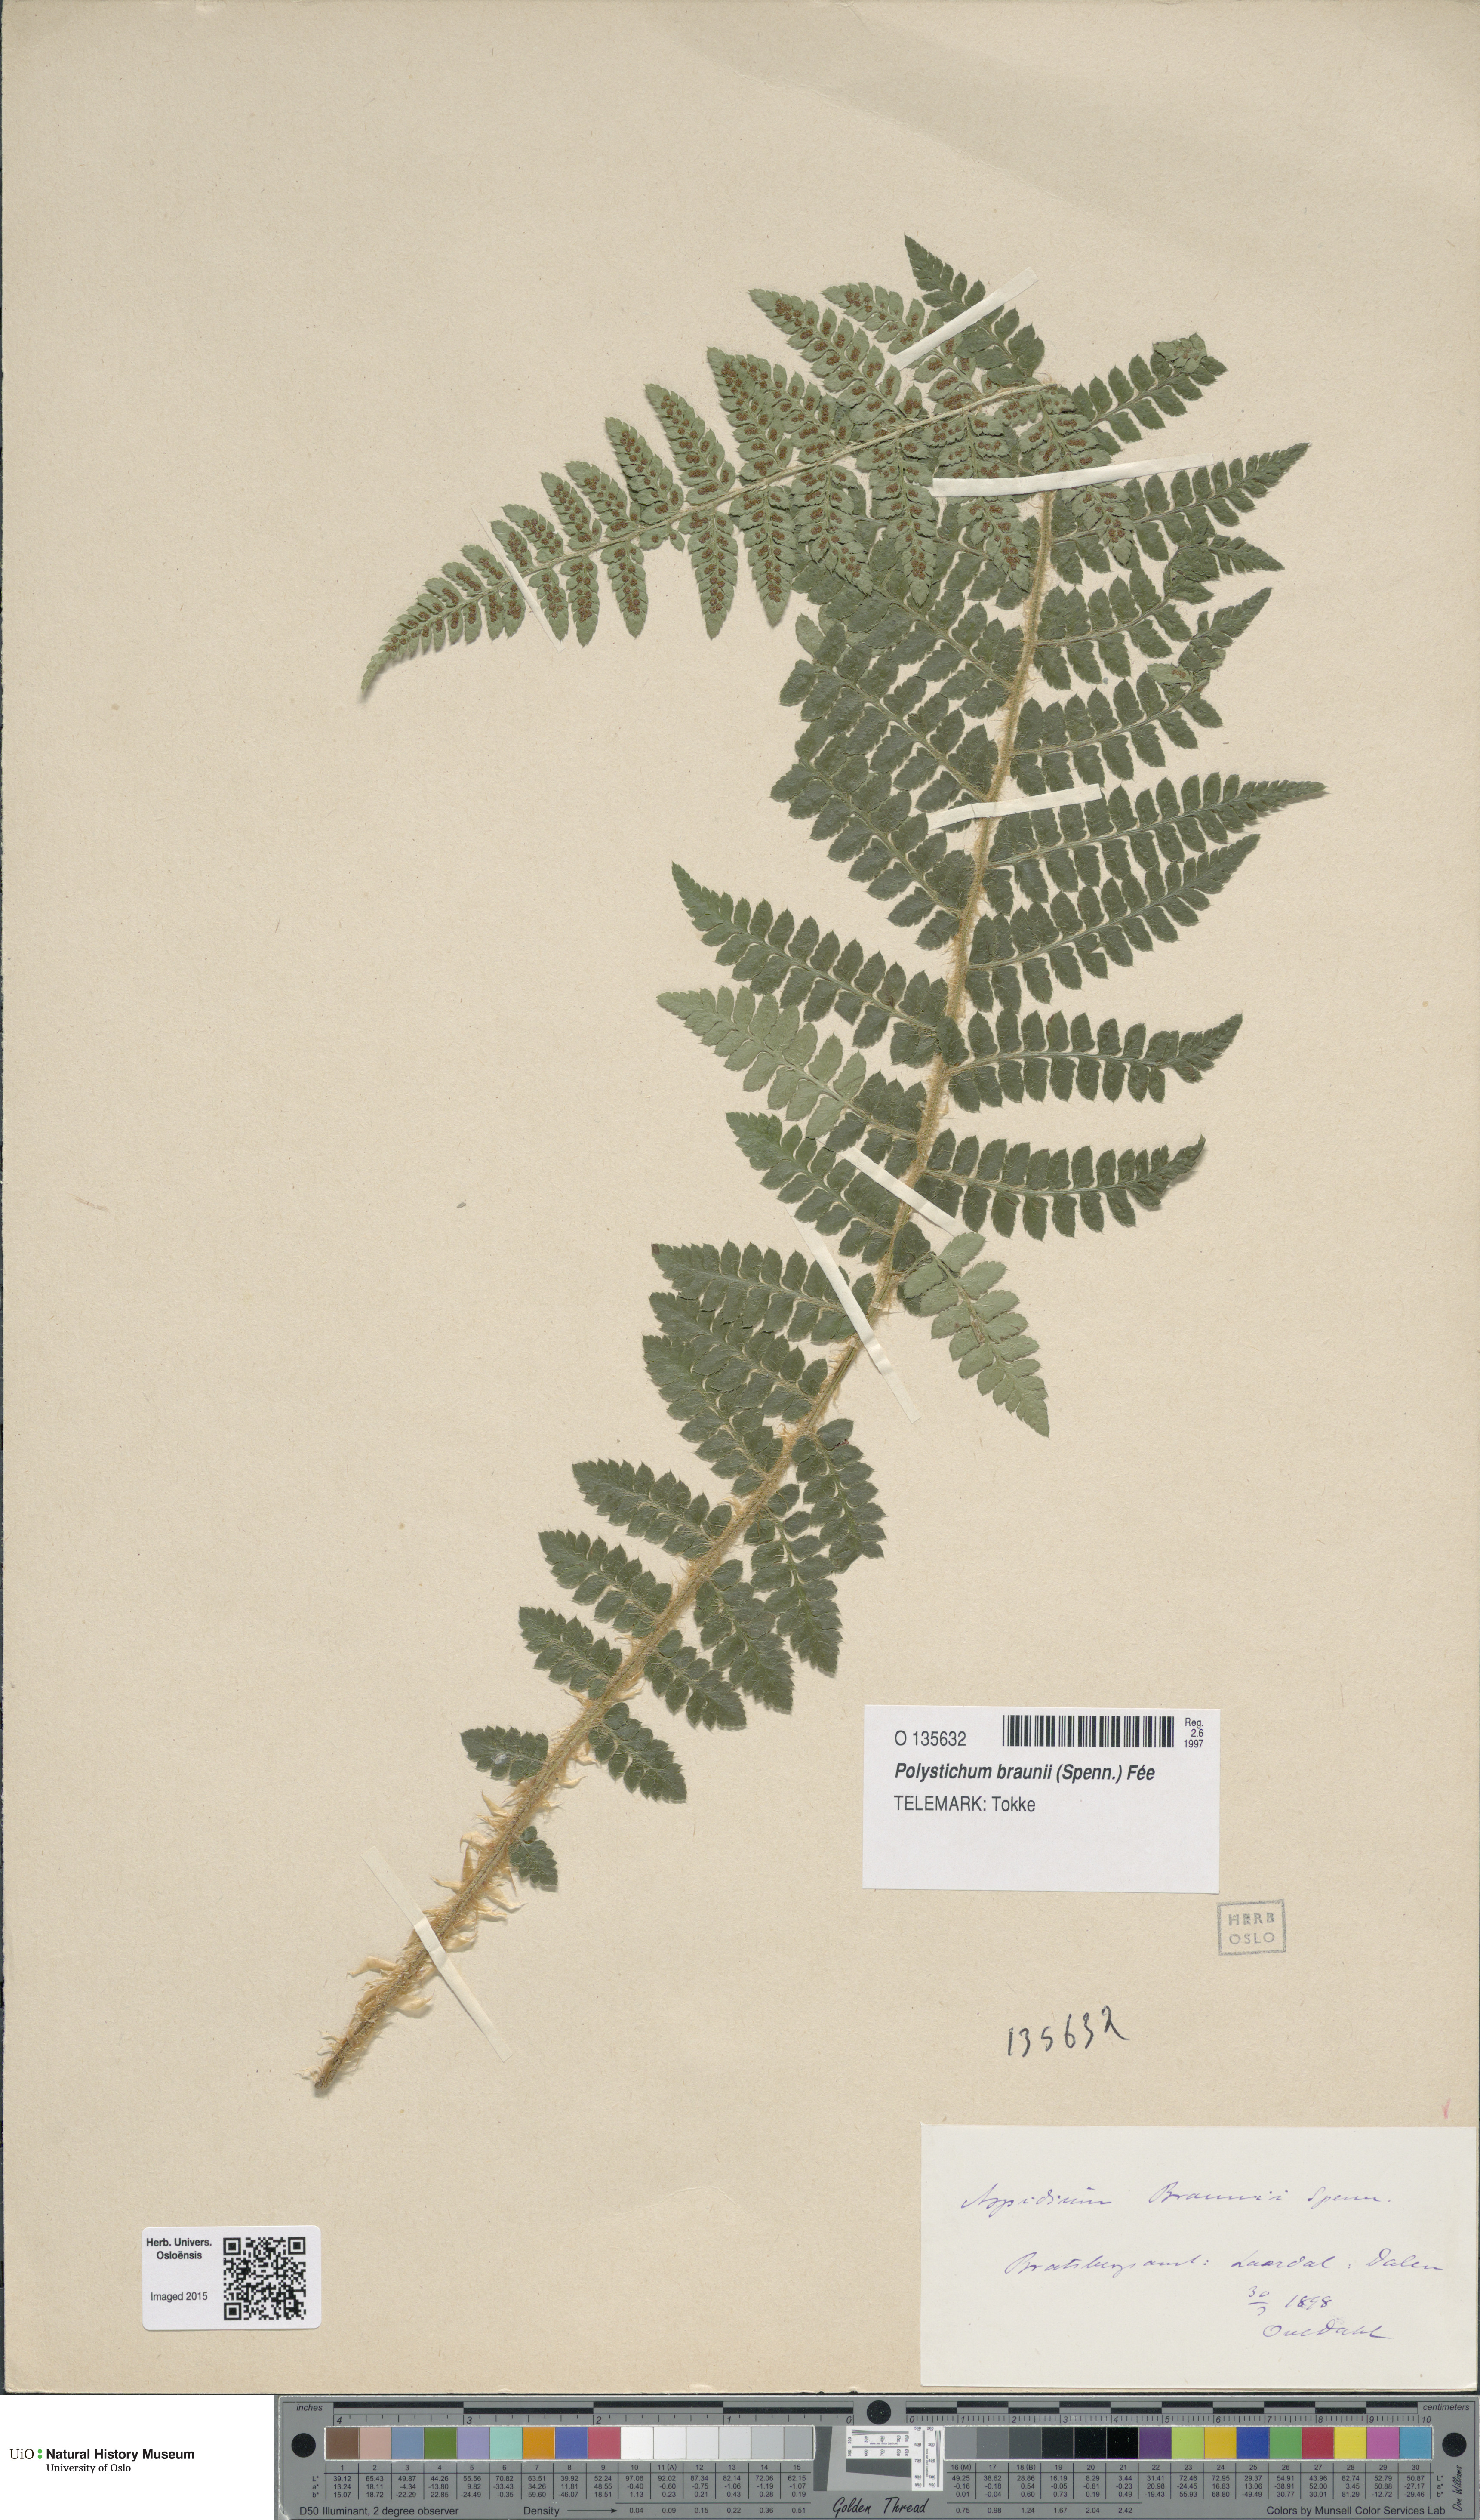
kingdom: Plantae
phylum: Tracheophyta
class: Polypodiopsida
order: Polypodiales
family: Dryopteridaceae
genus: Polystichum
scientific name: Polystichum braunii
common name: Braun's holly fern
